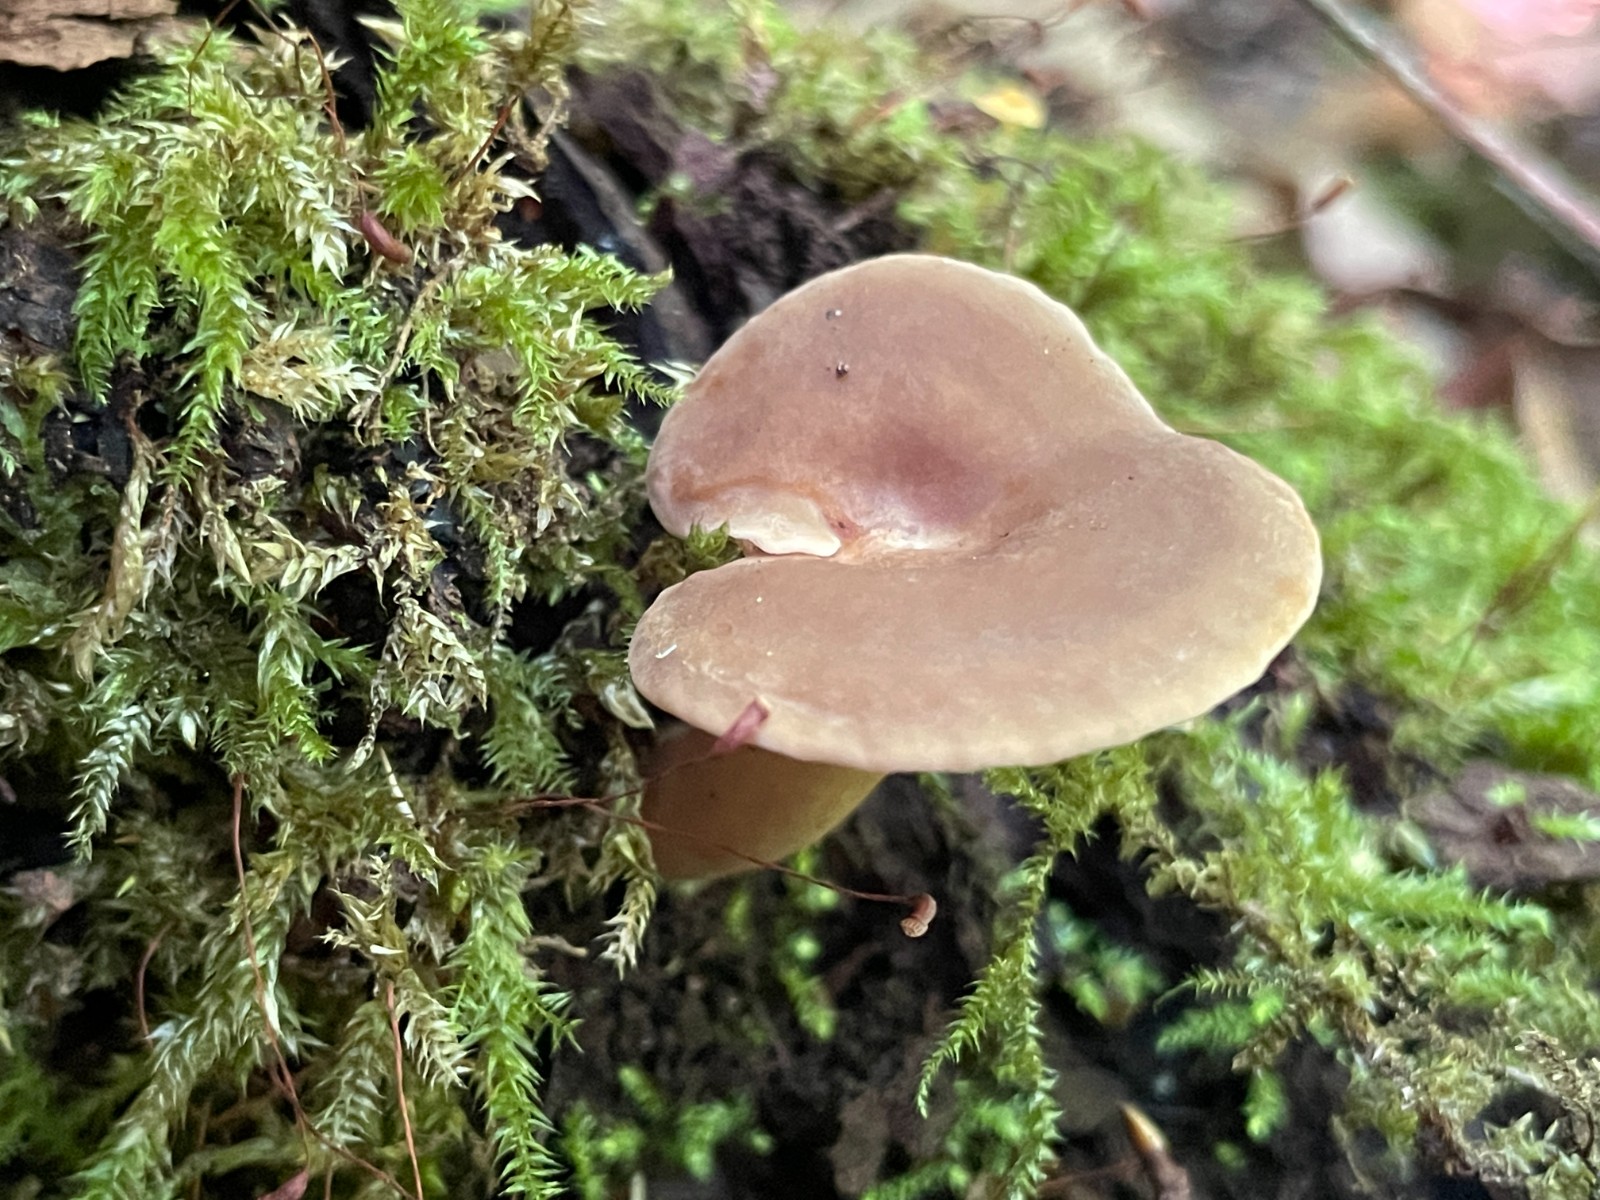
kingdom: Fungi
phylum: Basidiomycota
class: Agaricomycetes
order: Russulales
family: Russulaceae
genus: Lactarius
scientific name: Lactarius subdulcis
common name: sødlig mælkehat
